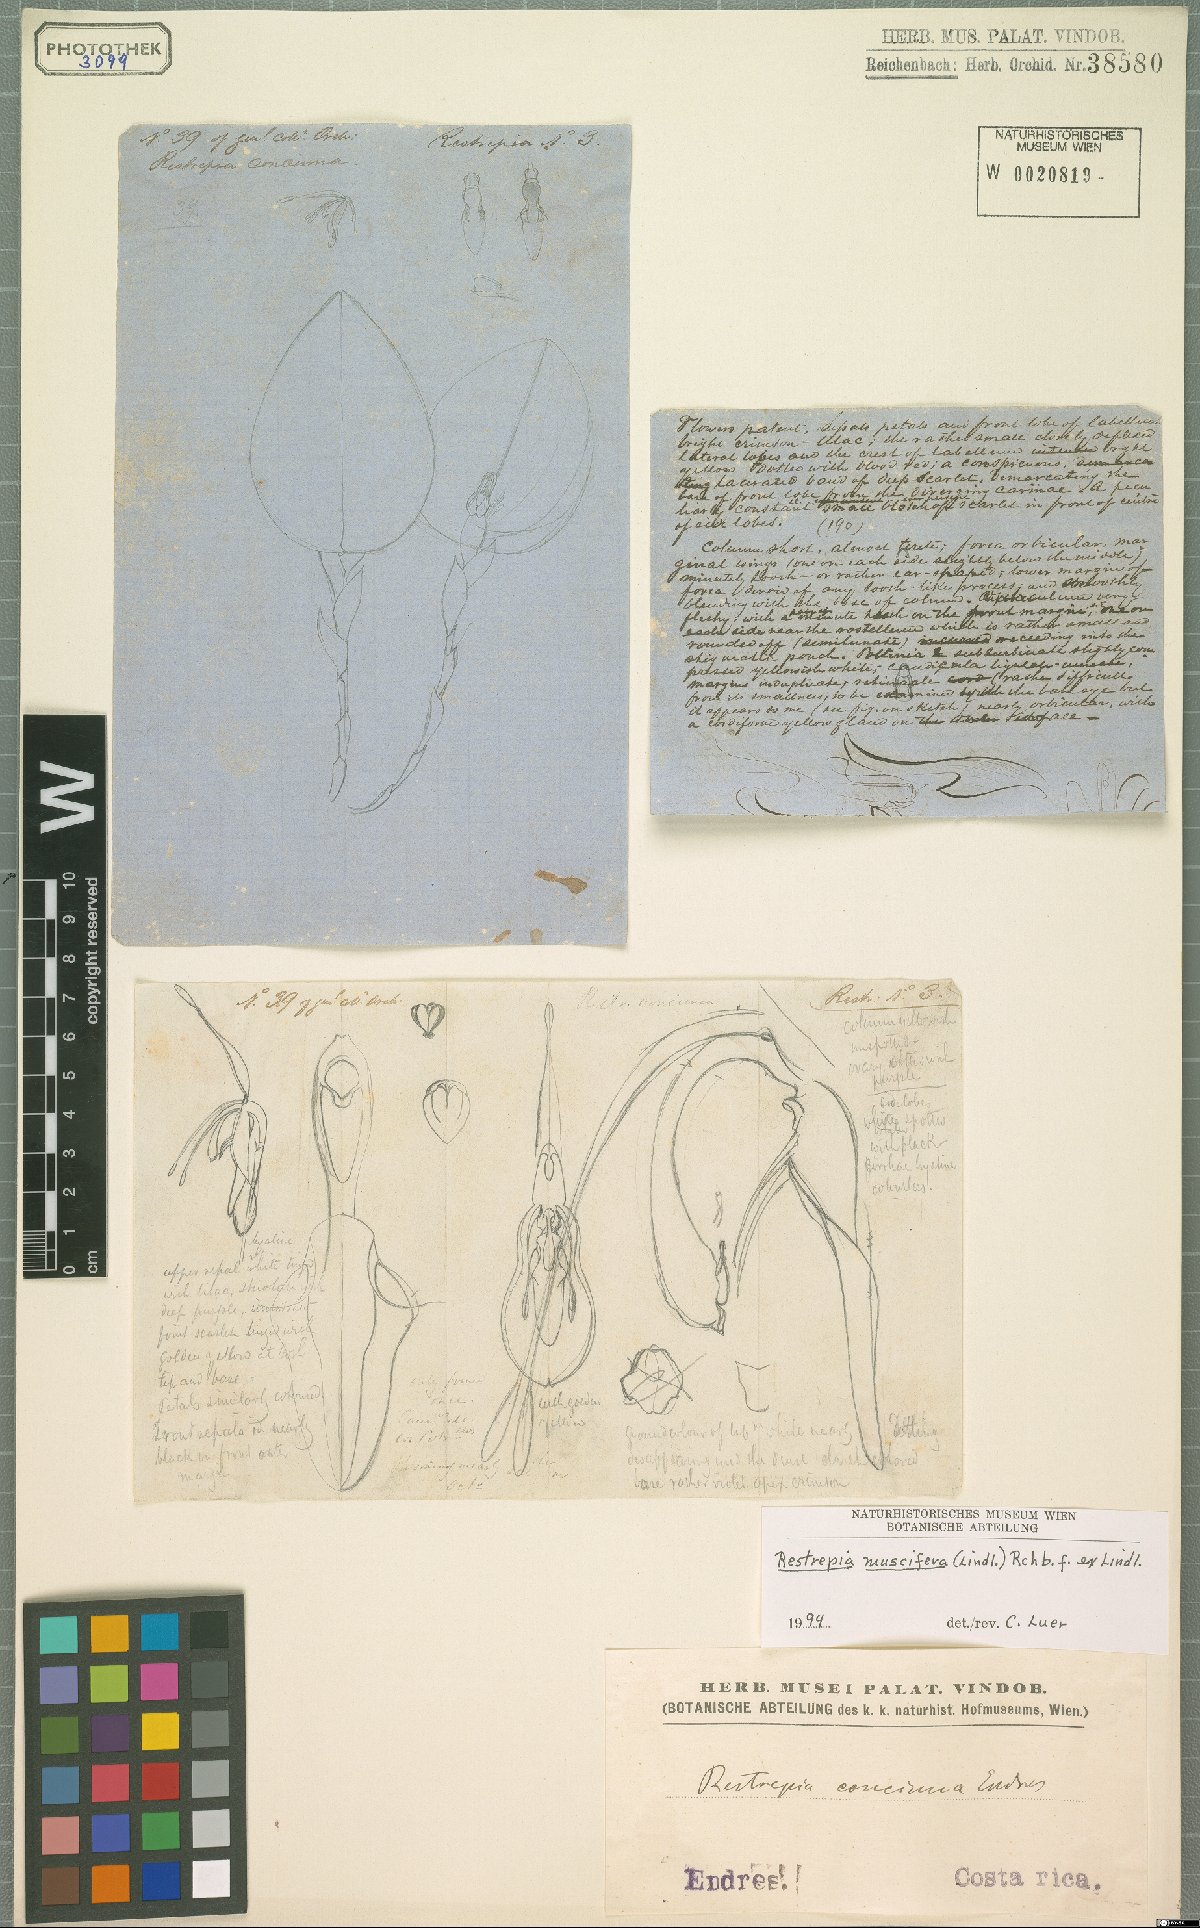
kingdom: Plantae
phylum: Tracheophyta
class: Liliopsida
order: Asparagales
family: Orchidaceae
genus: Restrepia
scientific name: Restrepia muscifera
